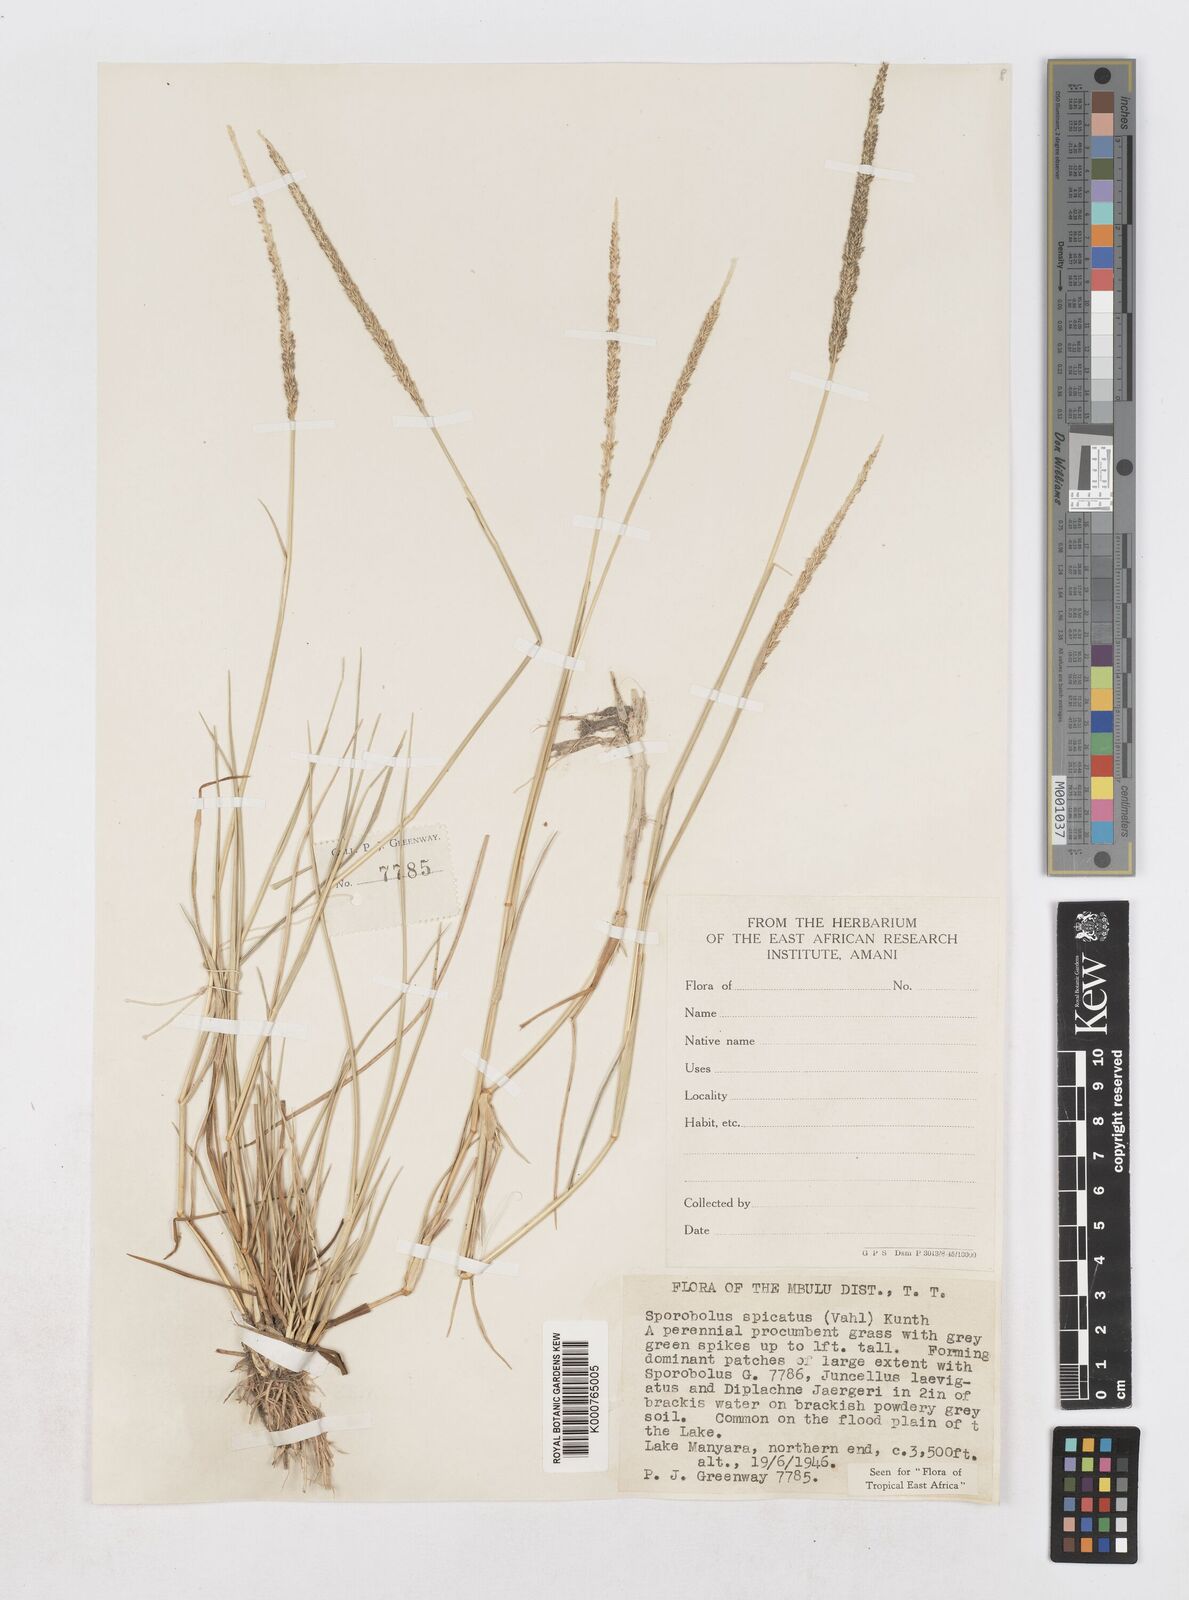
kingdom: Plantae
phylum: Tracheophyta
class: Liliopsida
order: Poales
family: Poaceae
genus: Sporobolus
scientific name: Sporobolus spicatus
